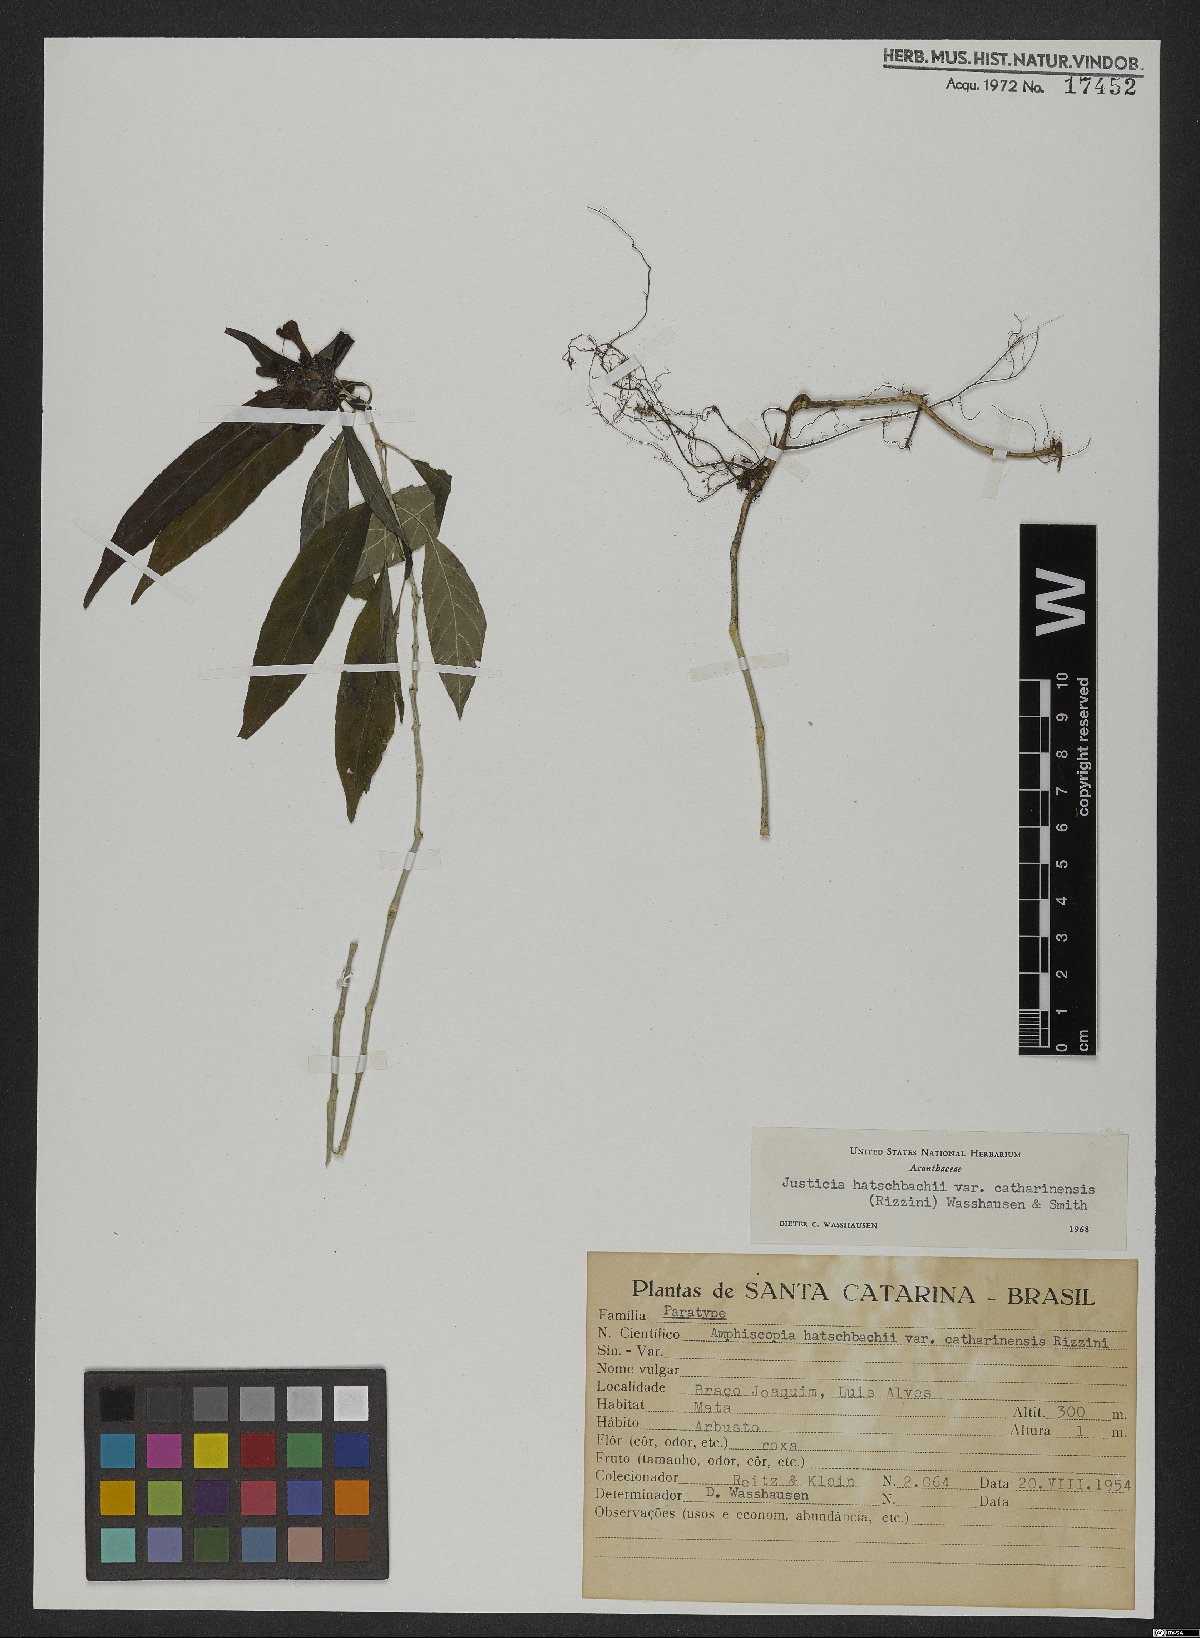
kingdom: Plantae
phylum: Tracheophyta
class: Magnoliopsida
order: Lamiales
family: Acanthaceae
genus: Justicia
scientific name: Justicia hatschbachii
